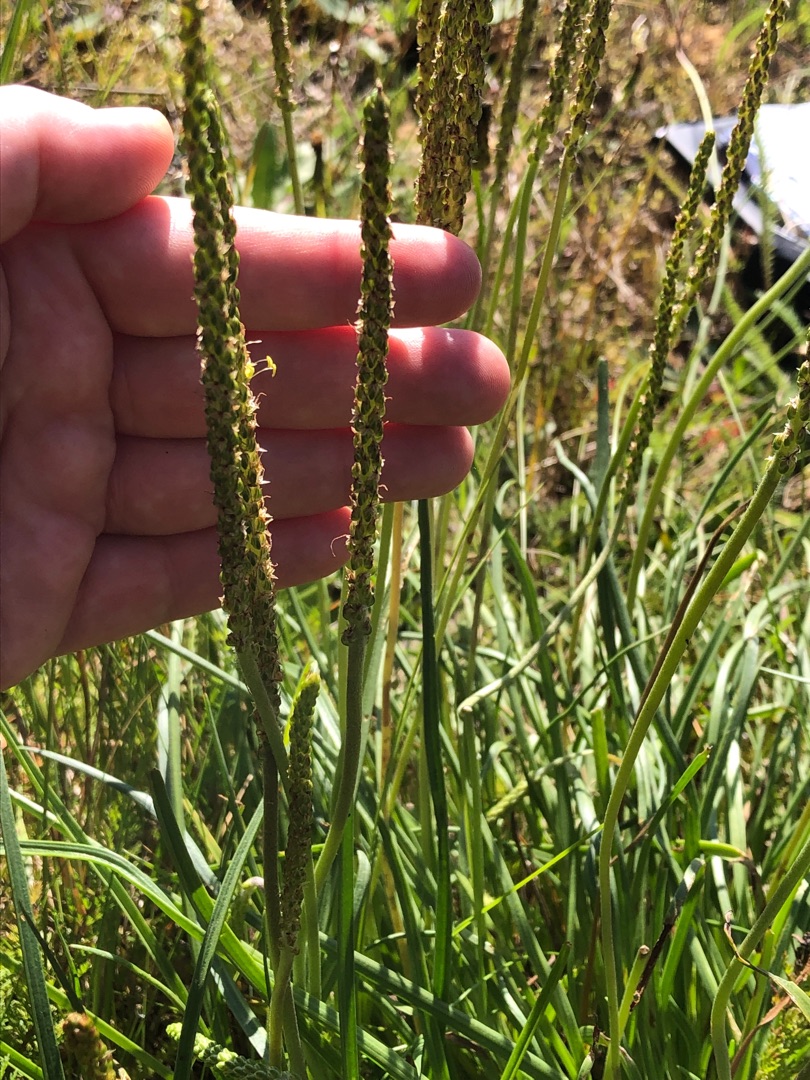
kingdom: Plantae
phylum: Tracheophyta
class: Magnoliopsida
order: Lamiales
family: Plantaginaceae
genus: Plantago
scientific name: Plantago maritima
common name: Strand-vejbred
